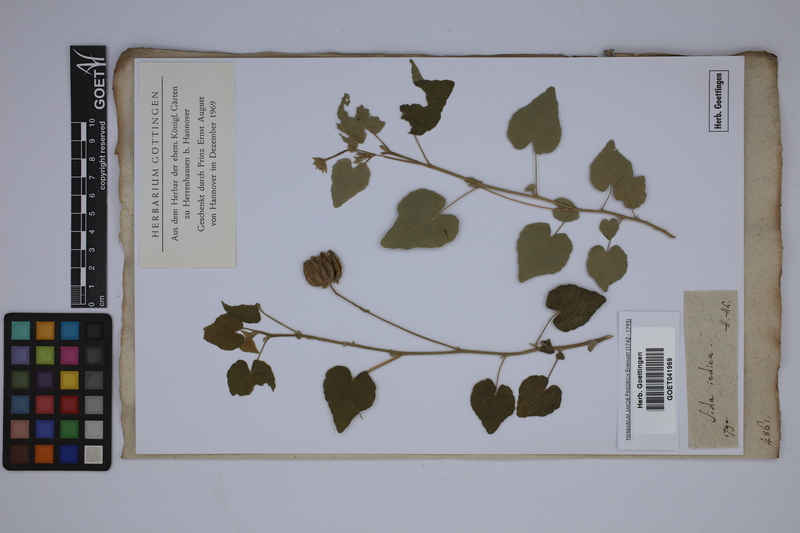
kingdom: Plantae
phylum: Tracheophyta
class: Magnoliopsida
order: Malvales
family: Malvaceae
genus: Abutilon
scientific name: Abutilon indicum
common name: Indian abutilon
